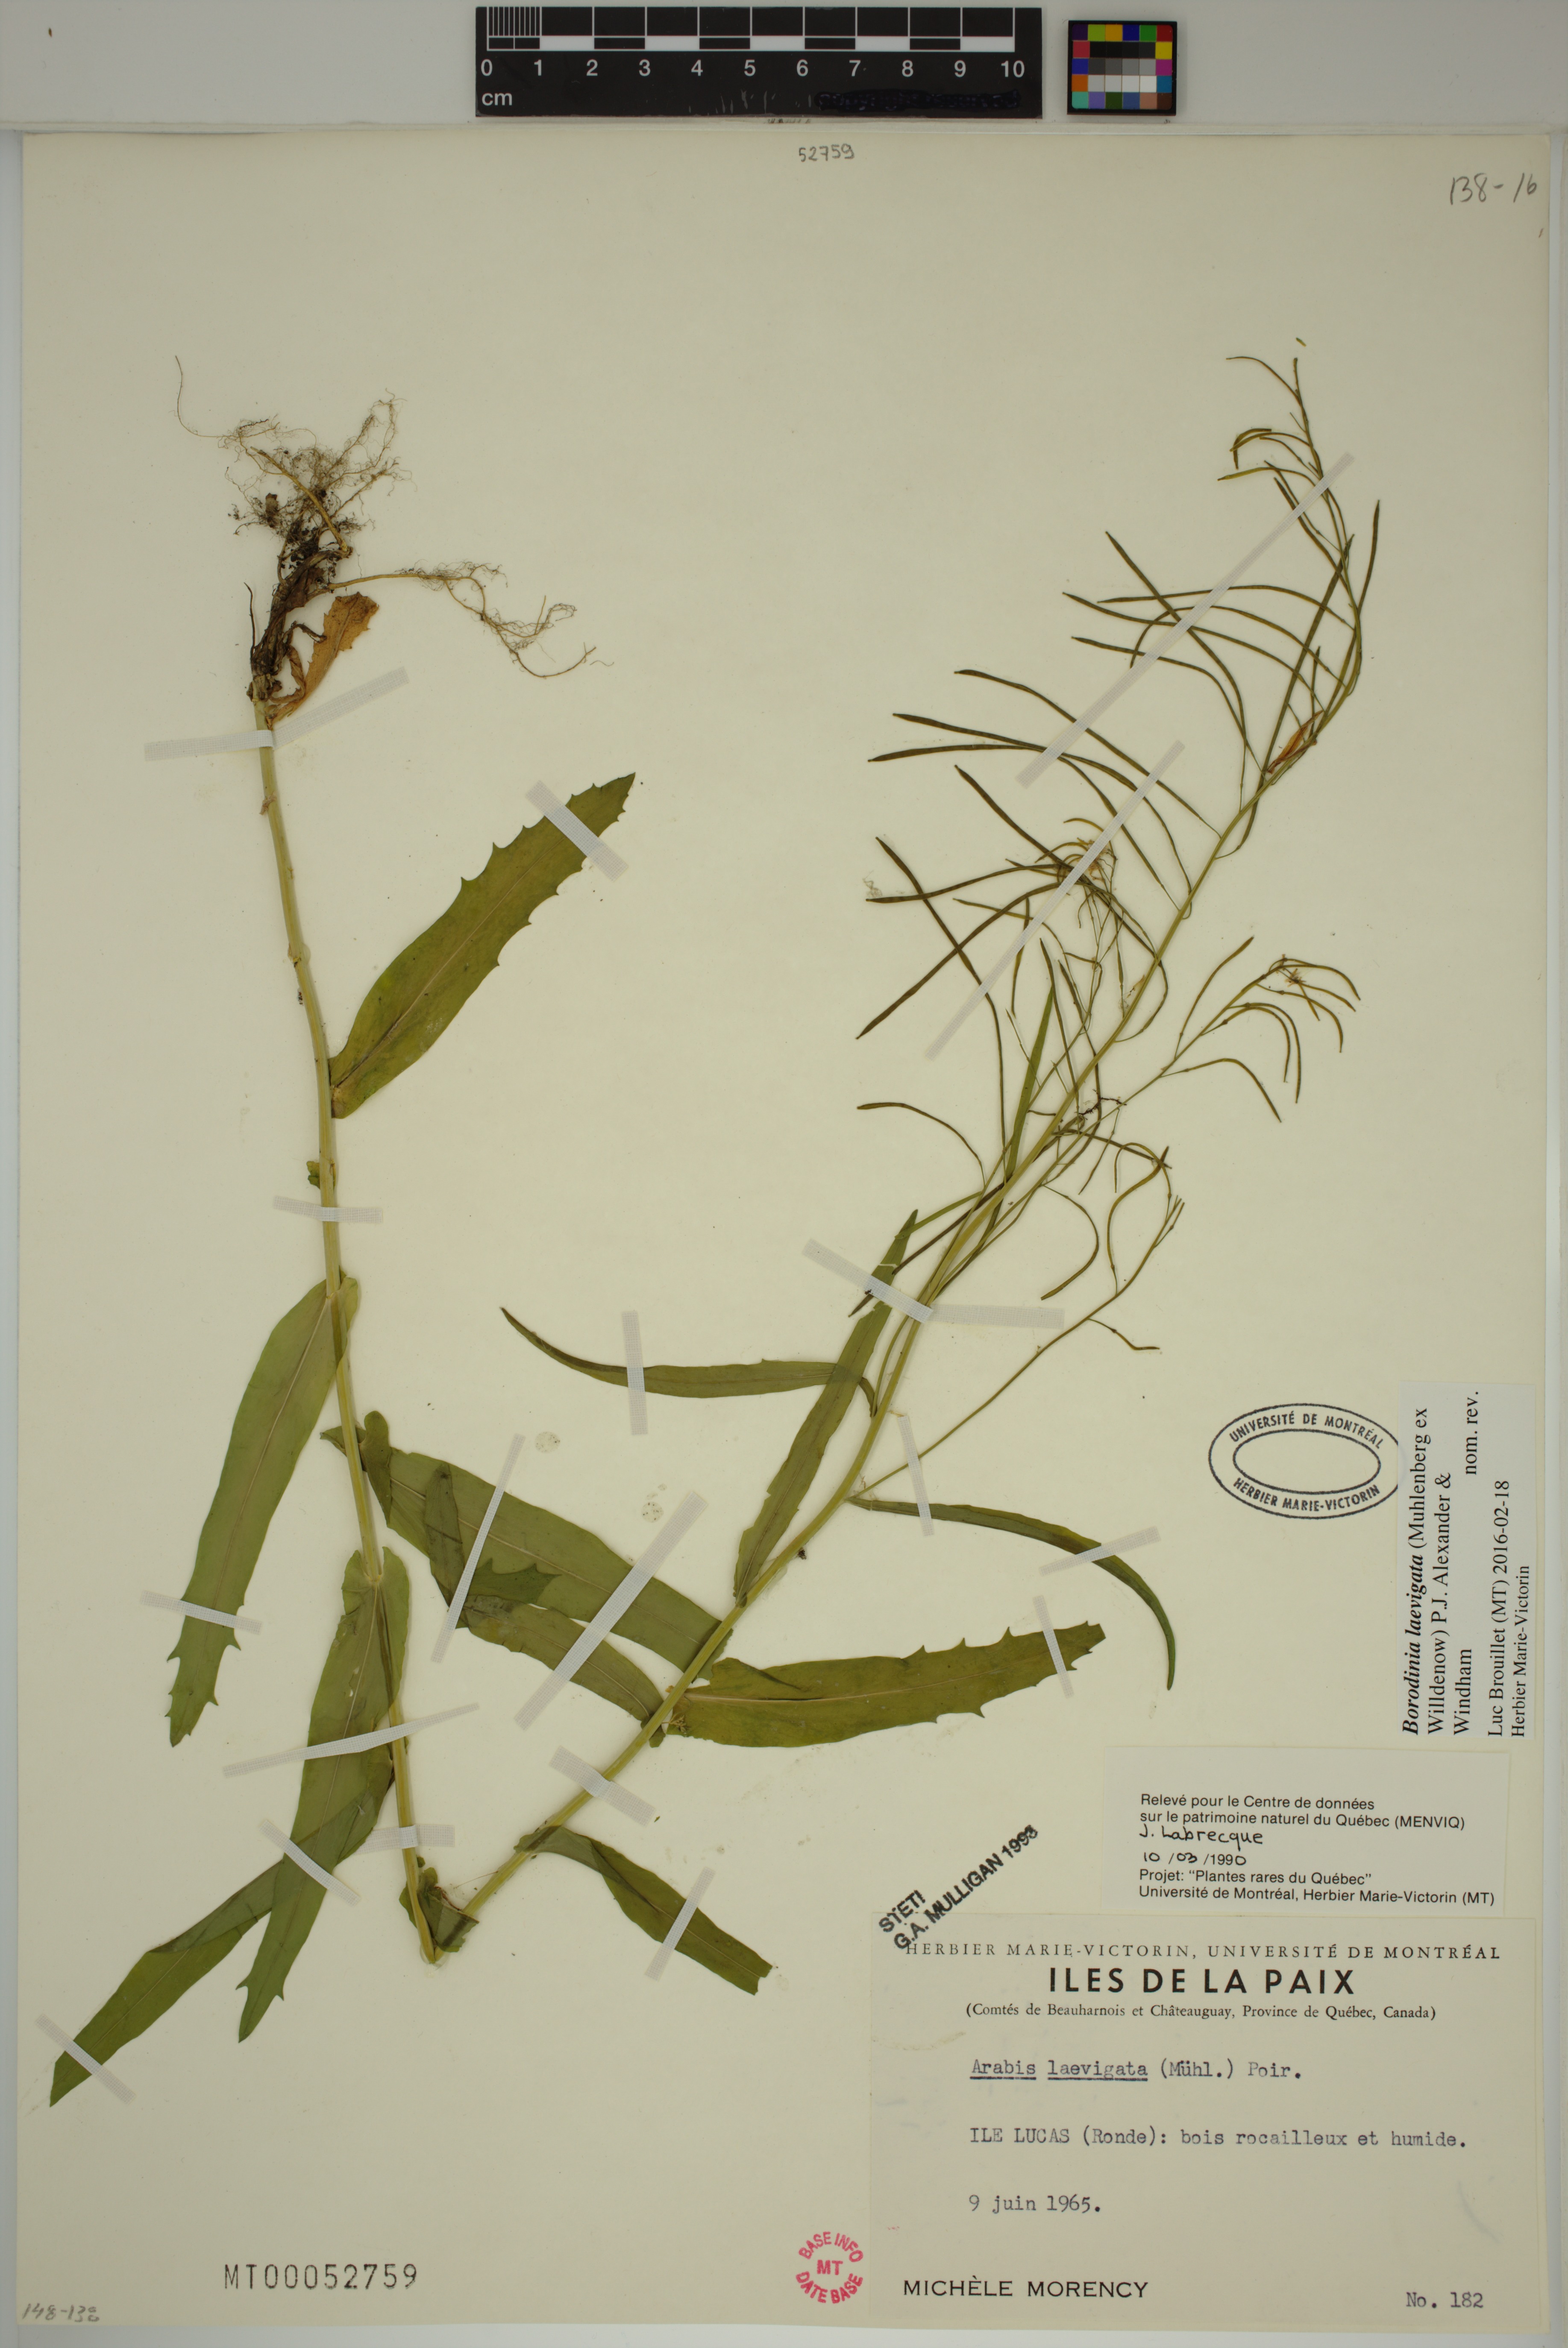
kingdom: Plantae
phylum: Tracheophyta
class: Magnoliopsida
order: Brassicales
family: Brassicaceae
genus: Borodinia
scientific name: Borodinia laevigata
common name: Smooth rockcress
